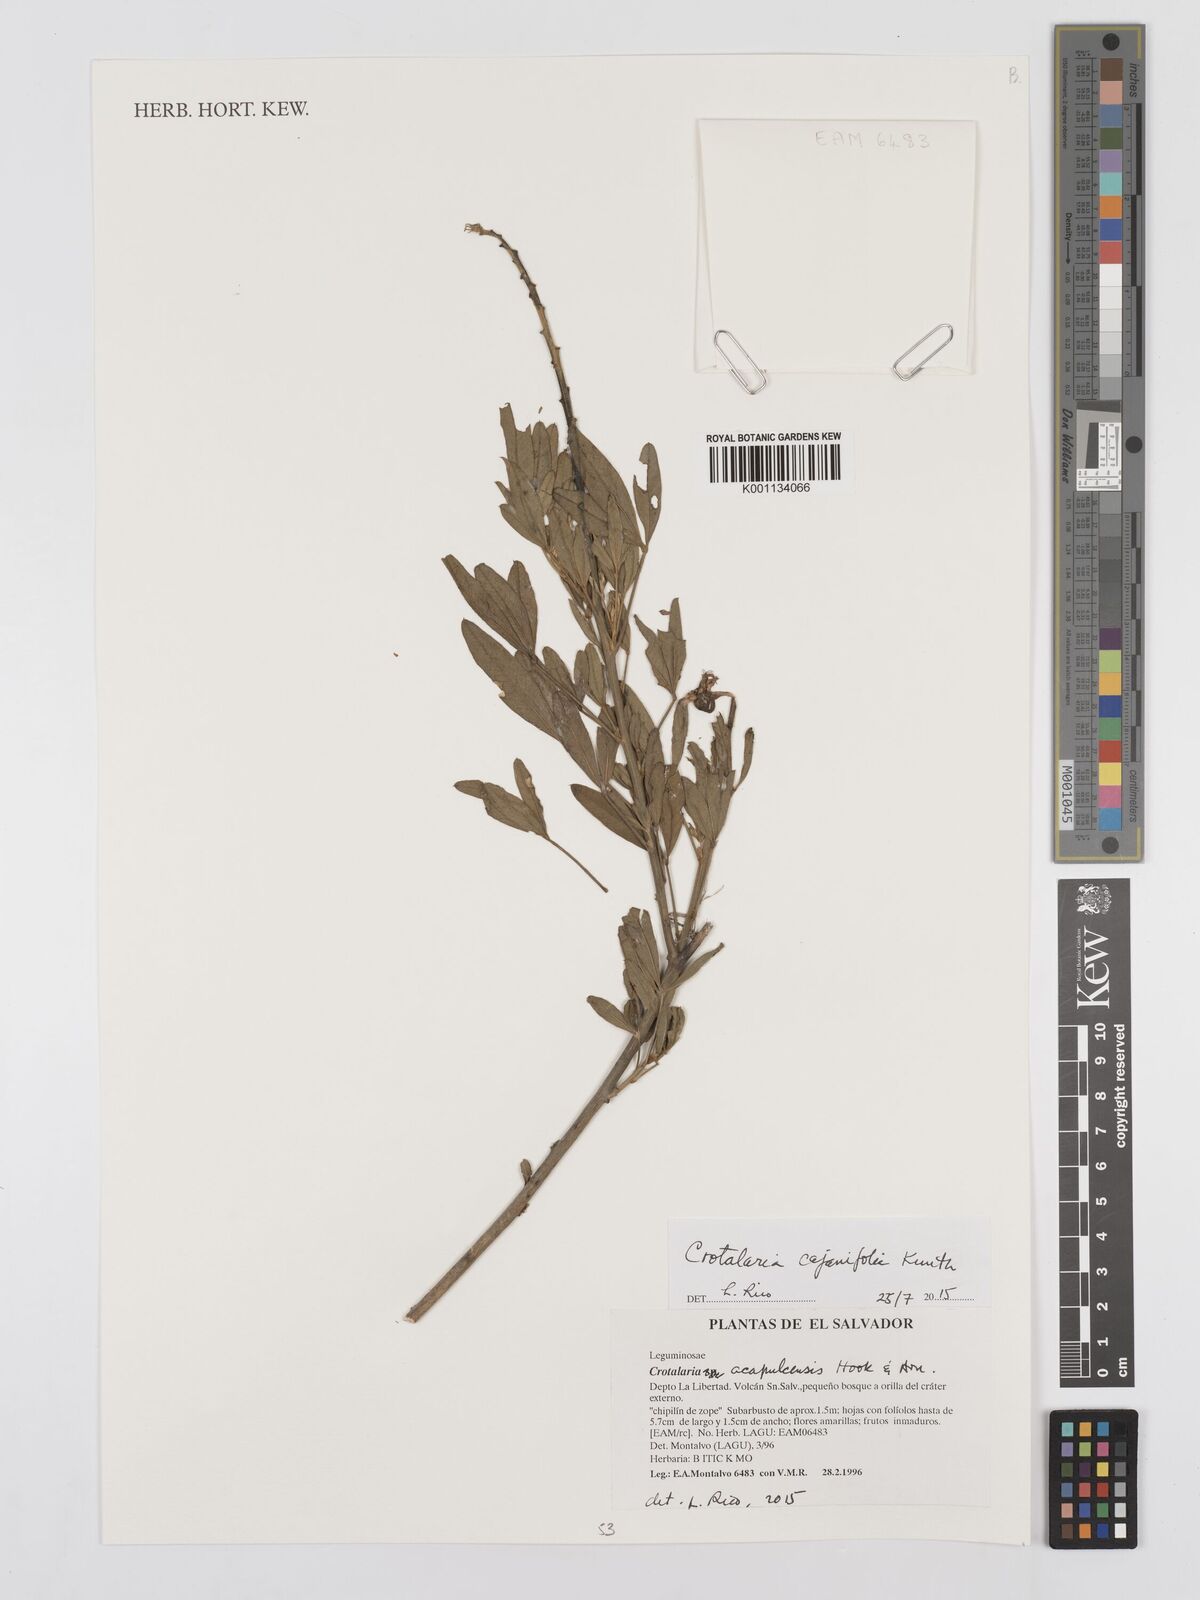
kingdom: Plantae
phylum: Tracheophyta
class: Magnoliopsida
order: Fabales
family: Fabaceae
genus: Crotalaria
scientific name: Crotalaria cajanifolia
